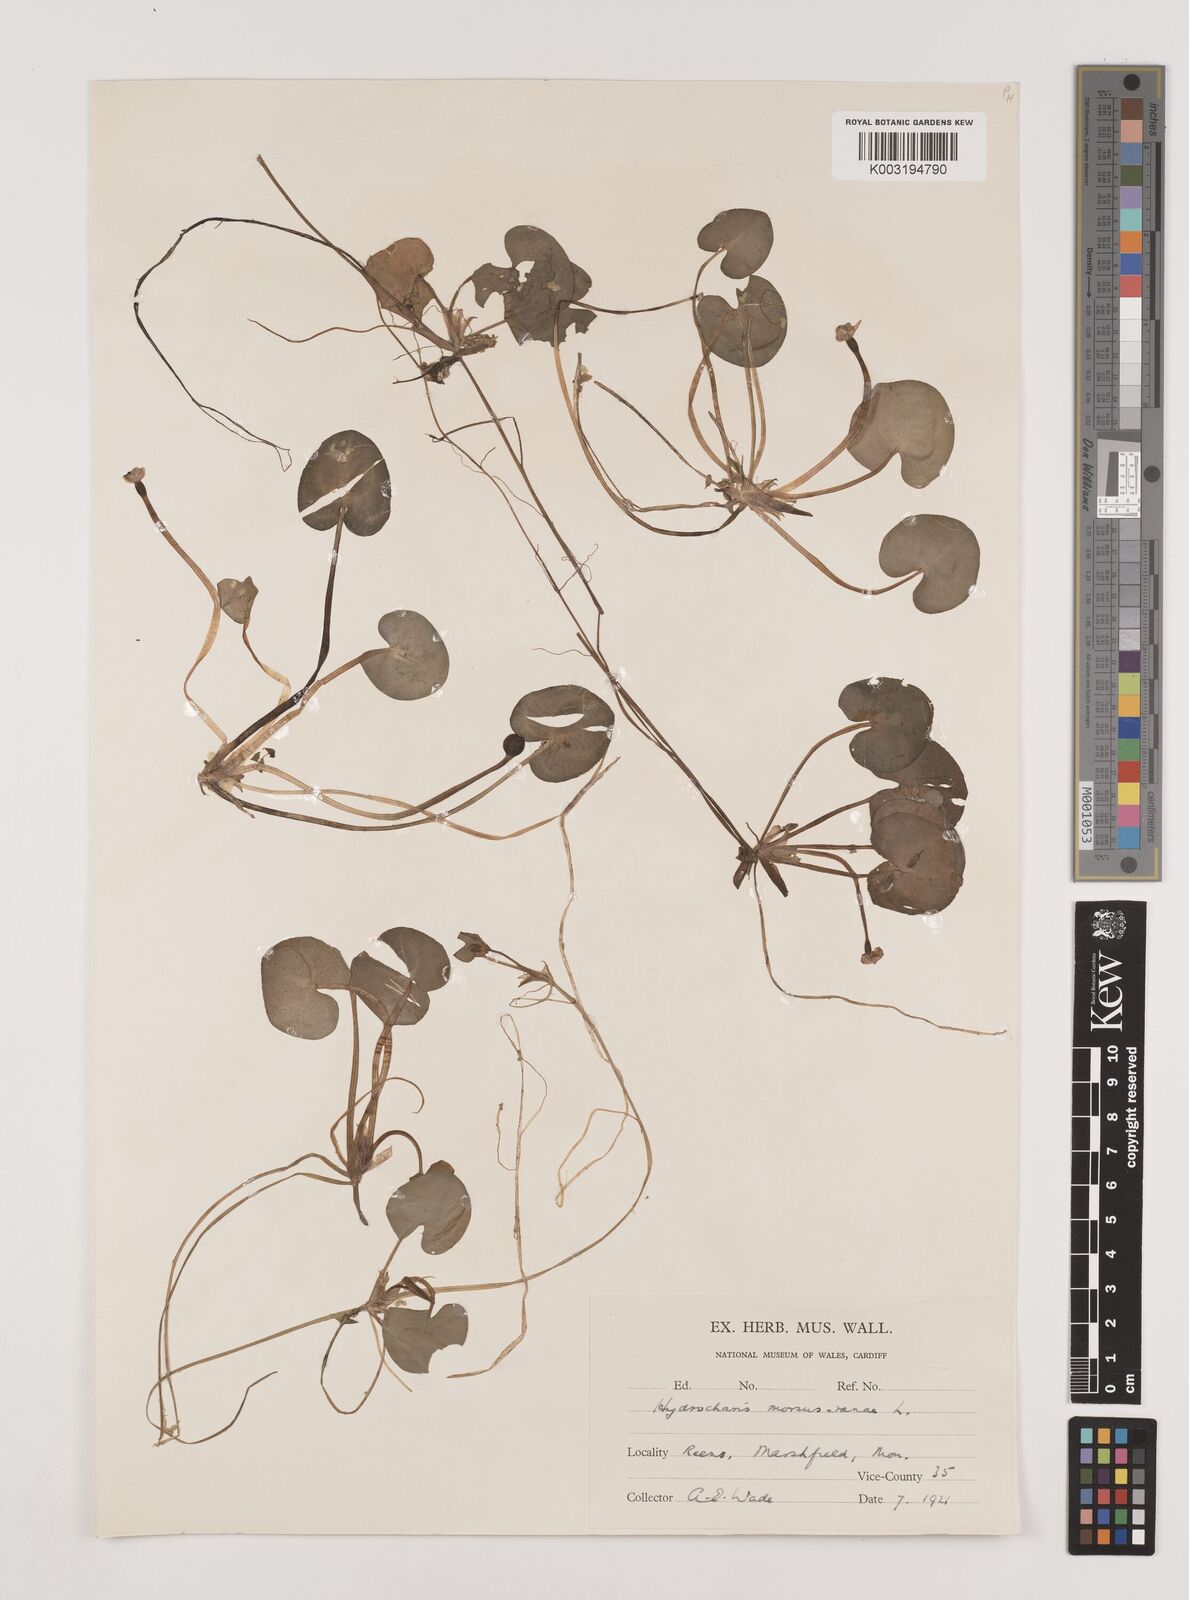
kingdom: Plantae
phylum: Tracheophyta
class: Liliopsida
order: Alismatales
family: Hydrocharitaceae
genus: Hydrocharis
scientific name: Hydrocharis morsus-ranae
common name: Frogbit
